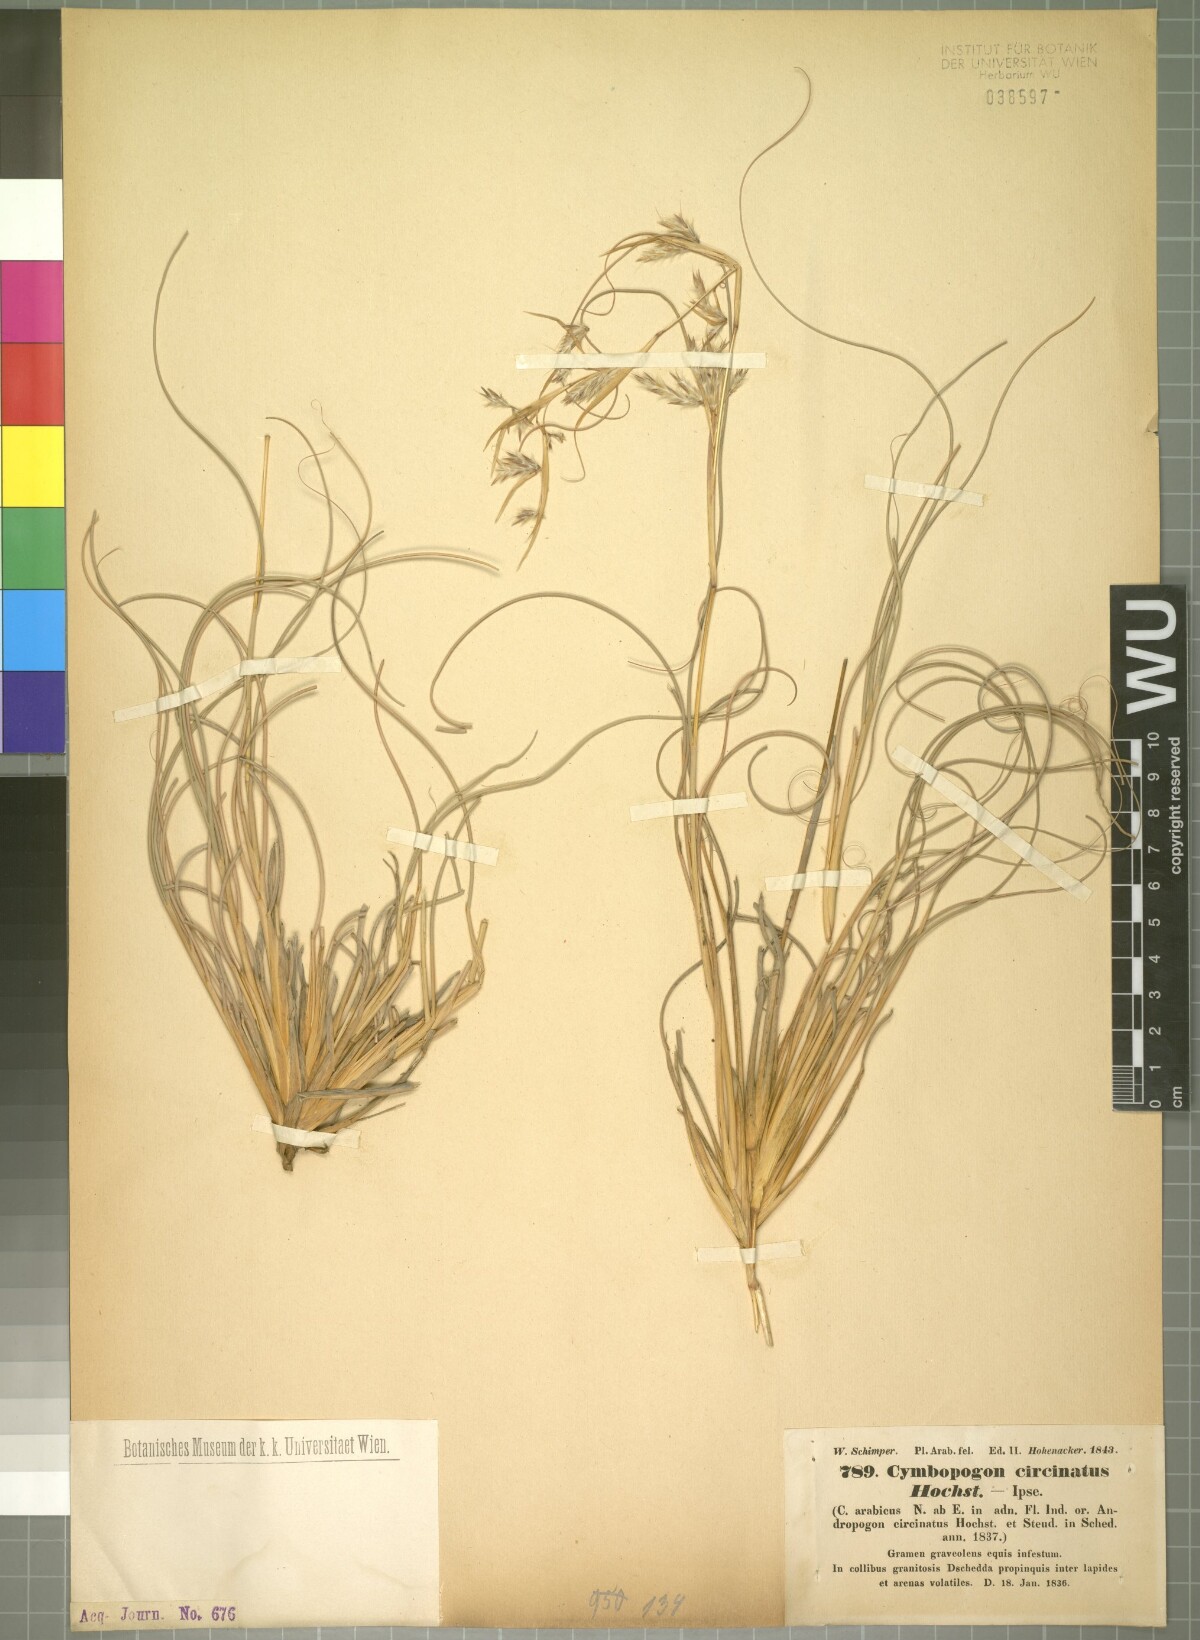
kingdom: Plantae
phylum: Tracheophyta
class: Liliopsida
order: Poales
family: Poaceae
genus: Cymbopogon
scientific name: Cymbopogon schoenanthus
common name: Geranium grass
